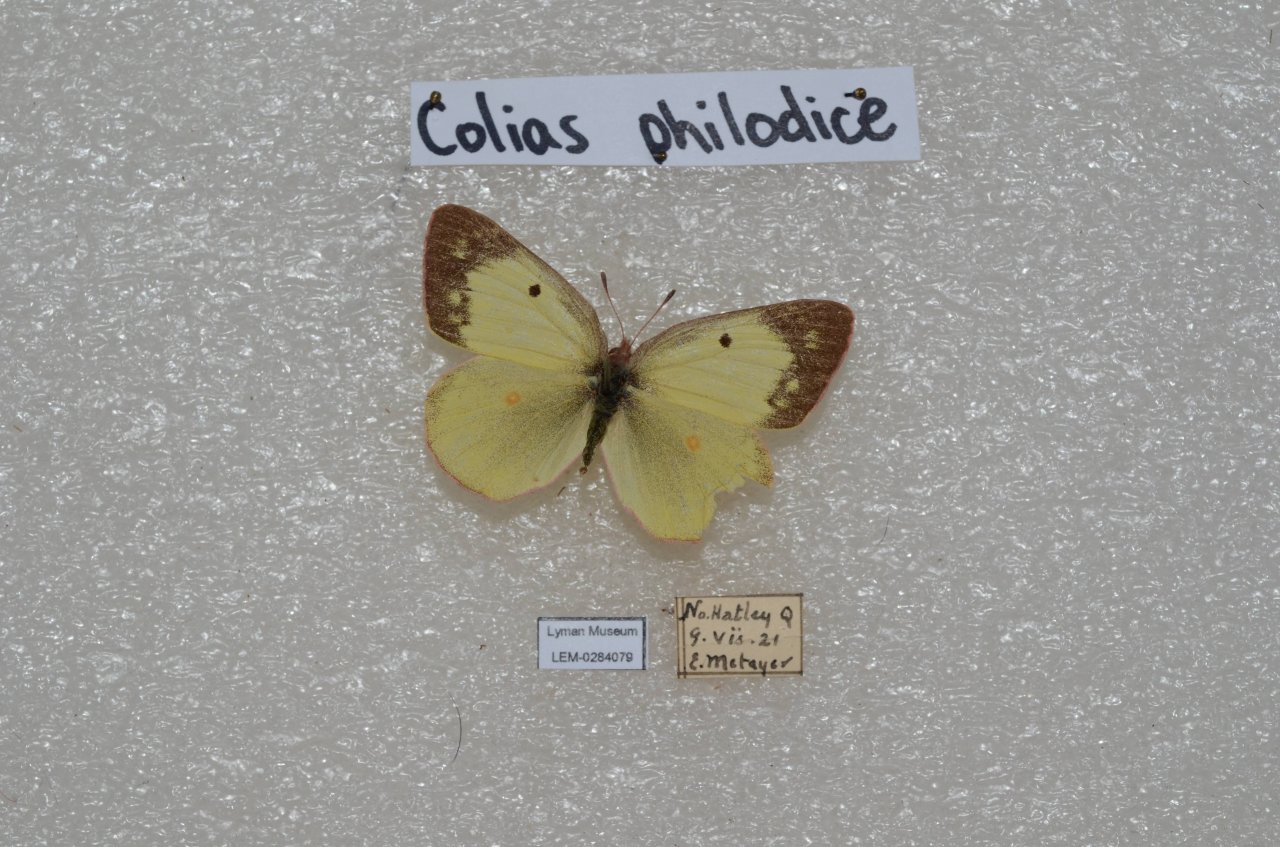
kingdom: Animalia
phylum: Arthropoda
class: Insecta
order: Lepidoptera
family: Pieridae
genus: Colias
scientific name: Colias philodice
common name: Clouded Sulphur
